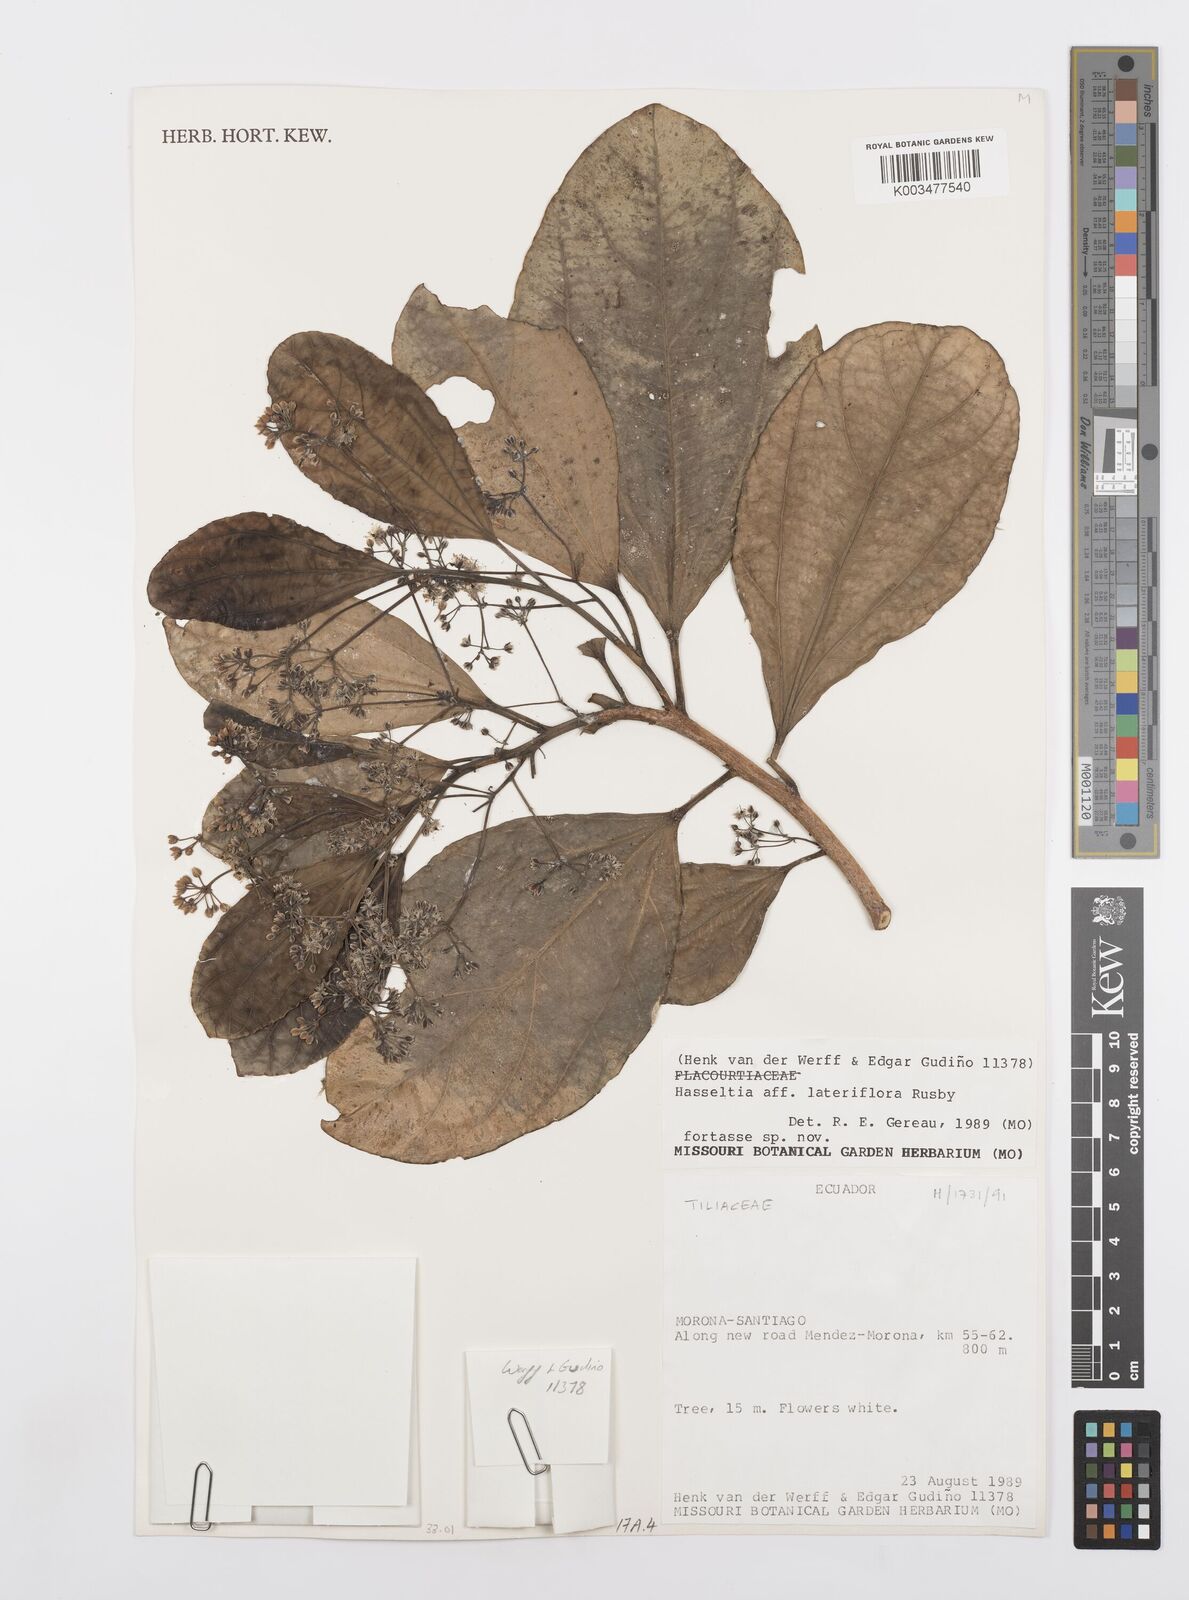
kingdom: Plantae
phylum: Tracheophyta
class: Magnoliopsida
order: Malpighiales
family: Salicaceae
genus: Hasseltia
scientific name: Hasseltia lateriflora
